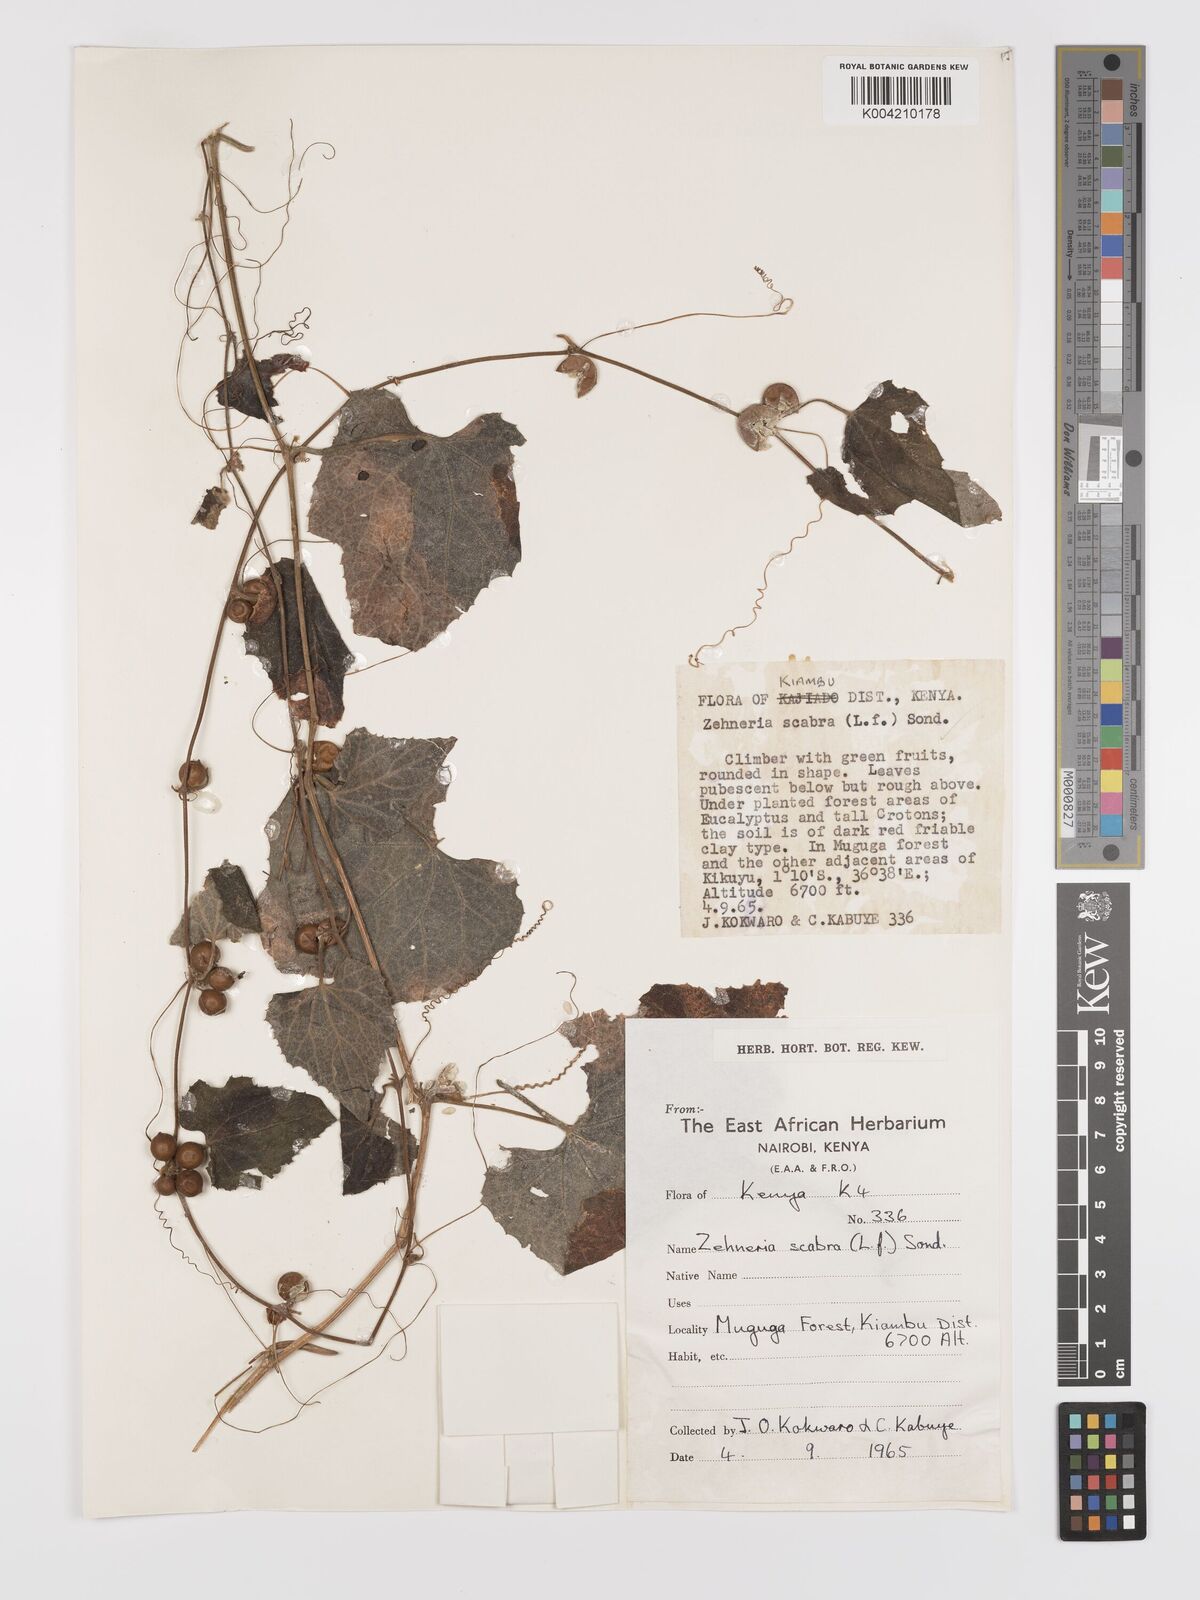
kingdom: Plantae
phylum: Tracheophyta
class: Magnoliopsida
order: Cucurbitales
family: Cucurbitaceae
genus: Zehneria
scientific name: Zehneria scabra
